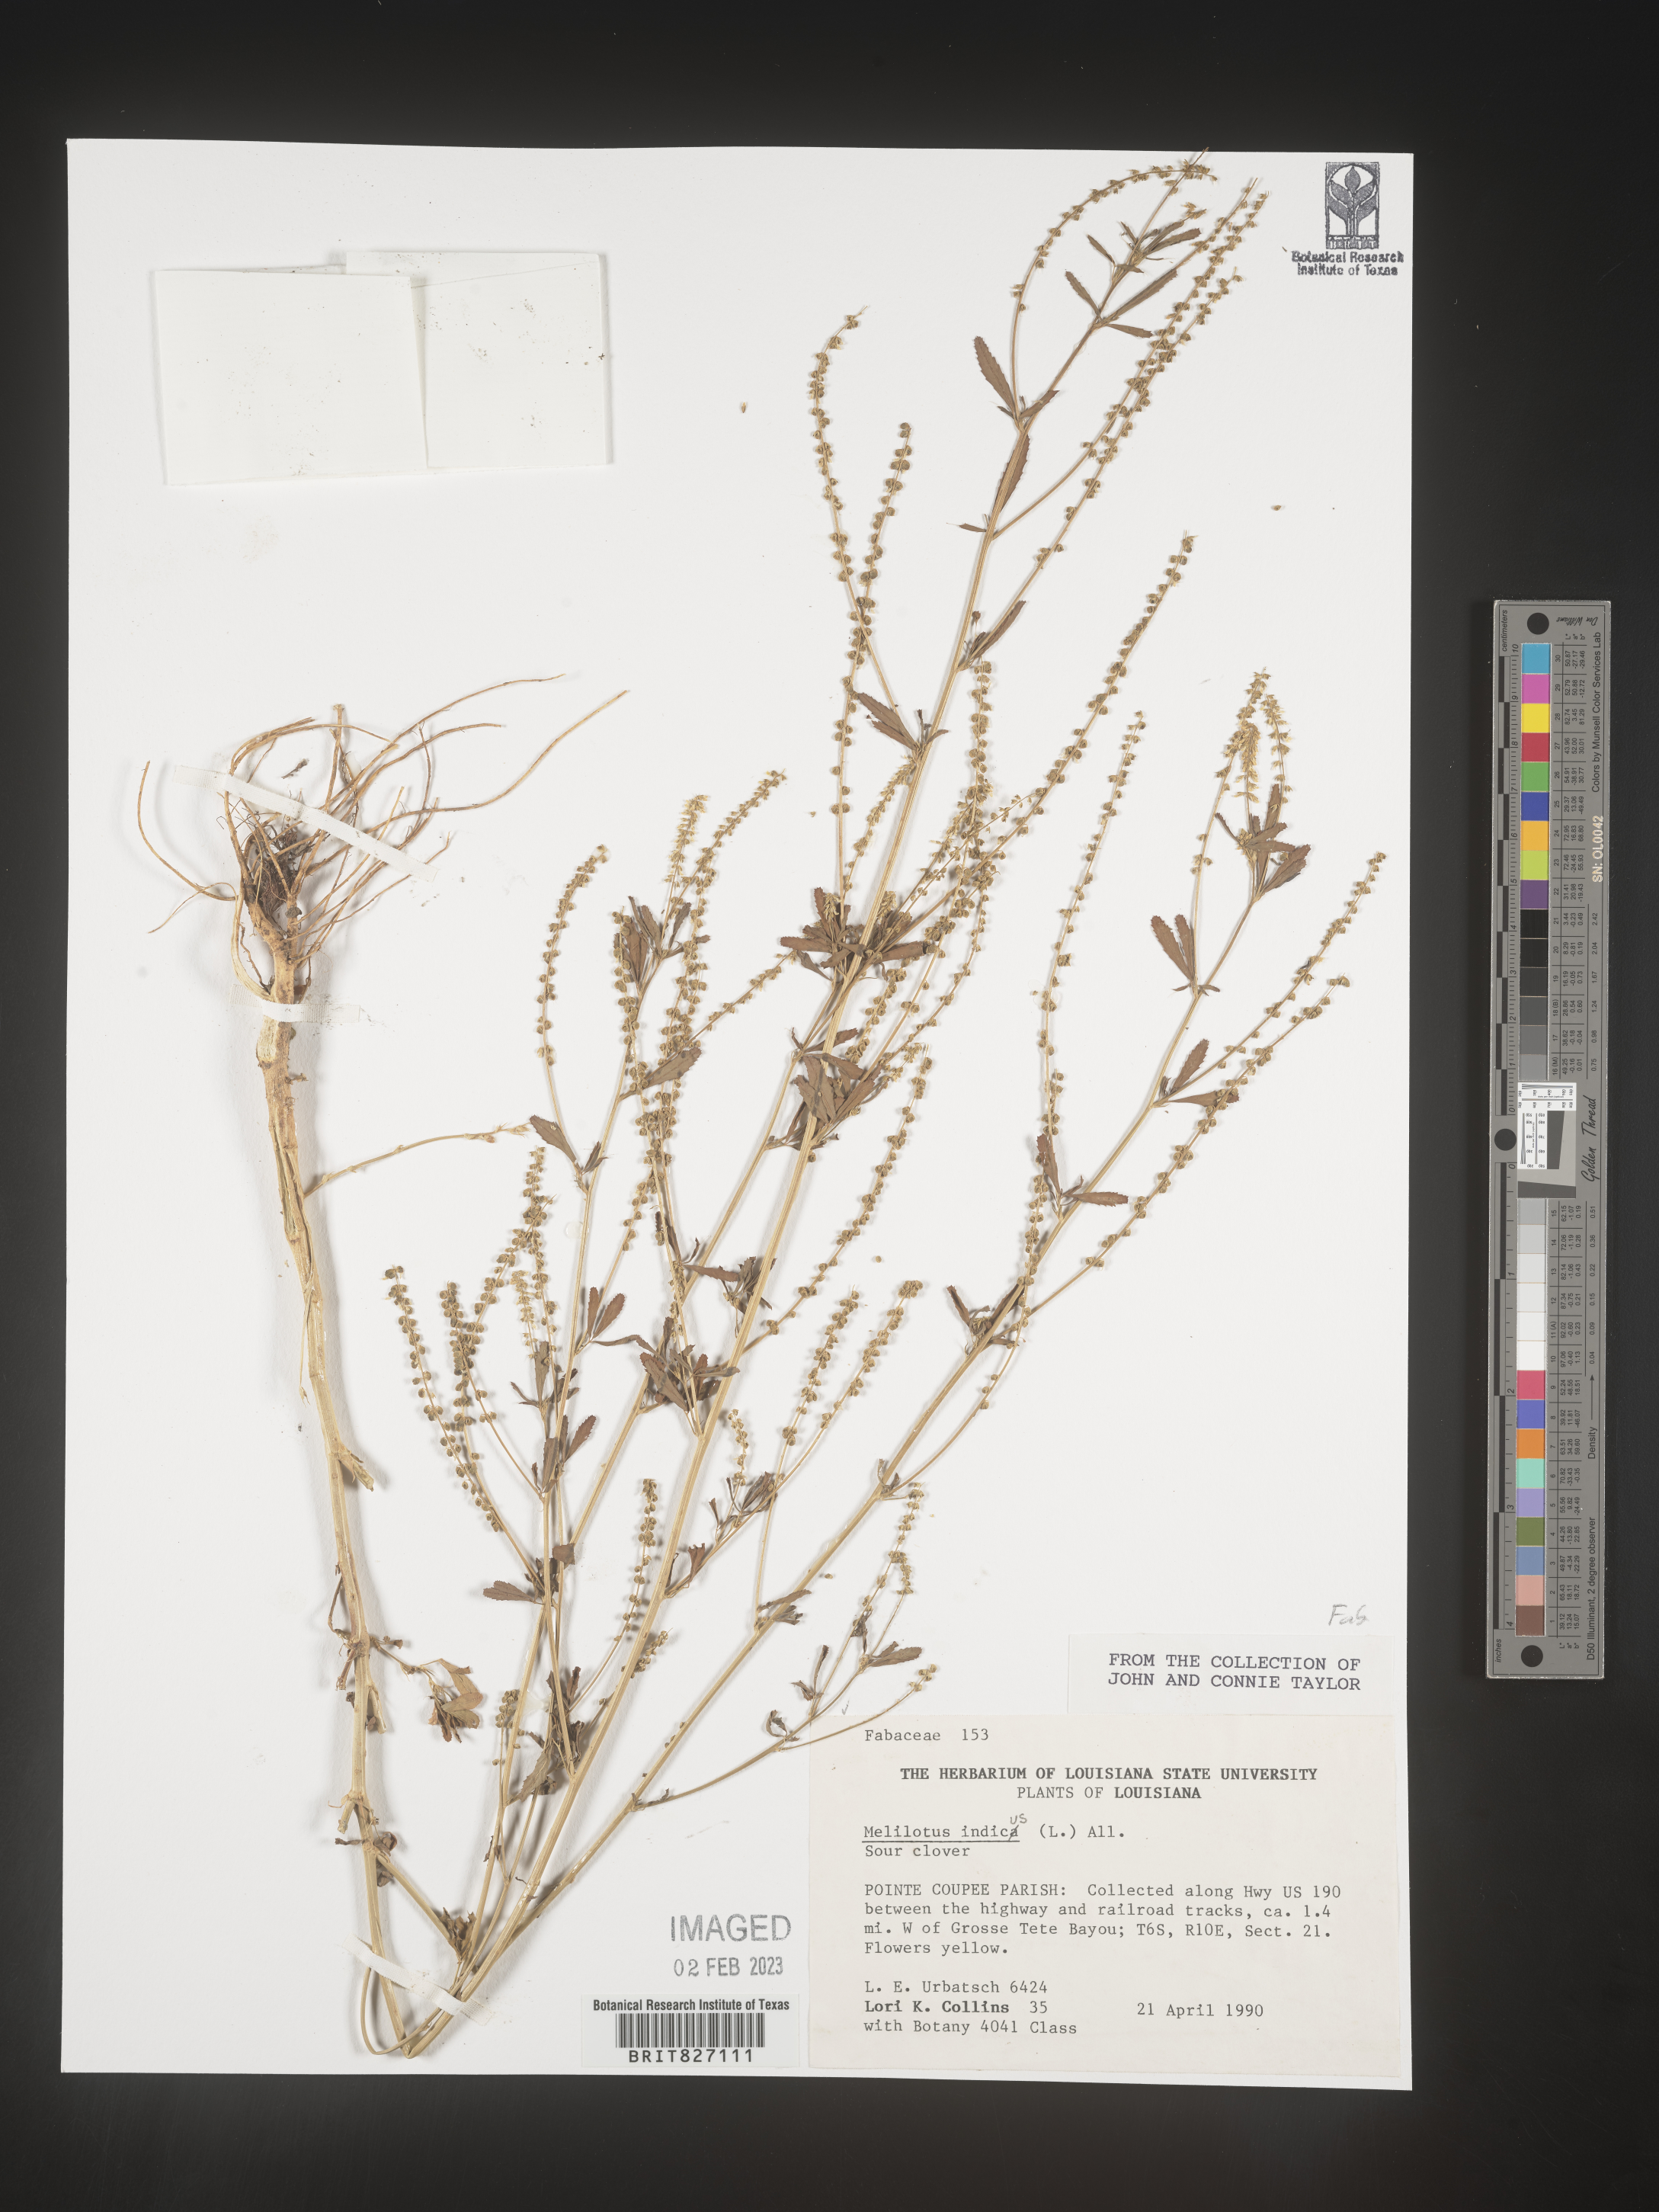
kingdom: Plantae
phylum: Tracheophyta
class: Magnoliopsida
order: Fabales
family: Fabaceae
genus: Melilotus
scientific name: Melilotus indicus
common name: Small melilot
